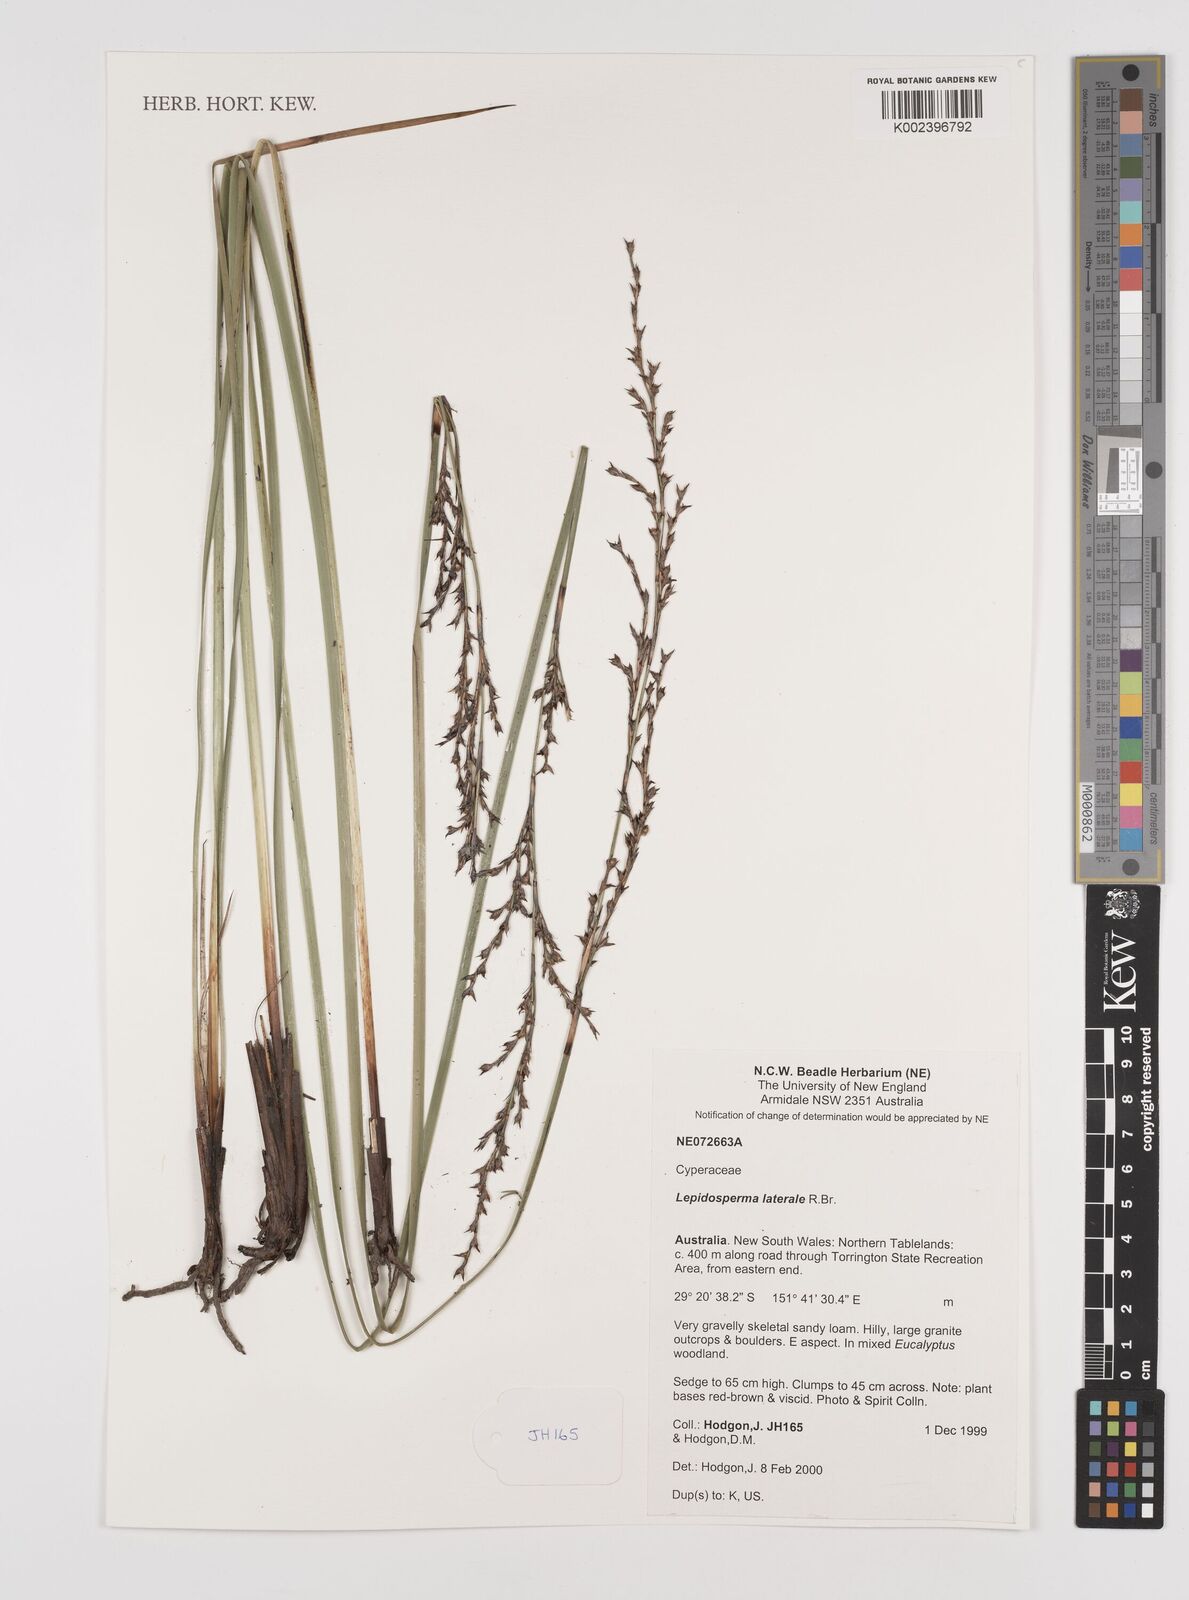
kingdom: Plantae
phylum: Tracheophyta
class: Liliopsida
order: Poales
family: Cyperaceae
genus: Lepidosperma
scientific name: Lepidosperma laterale
